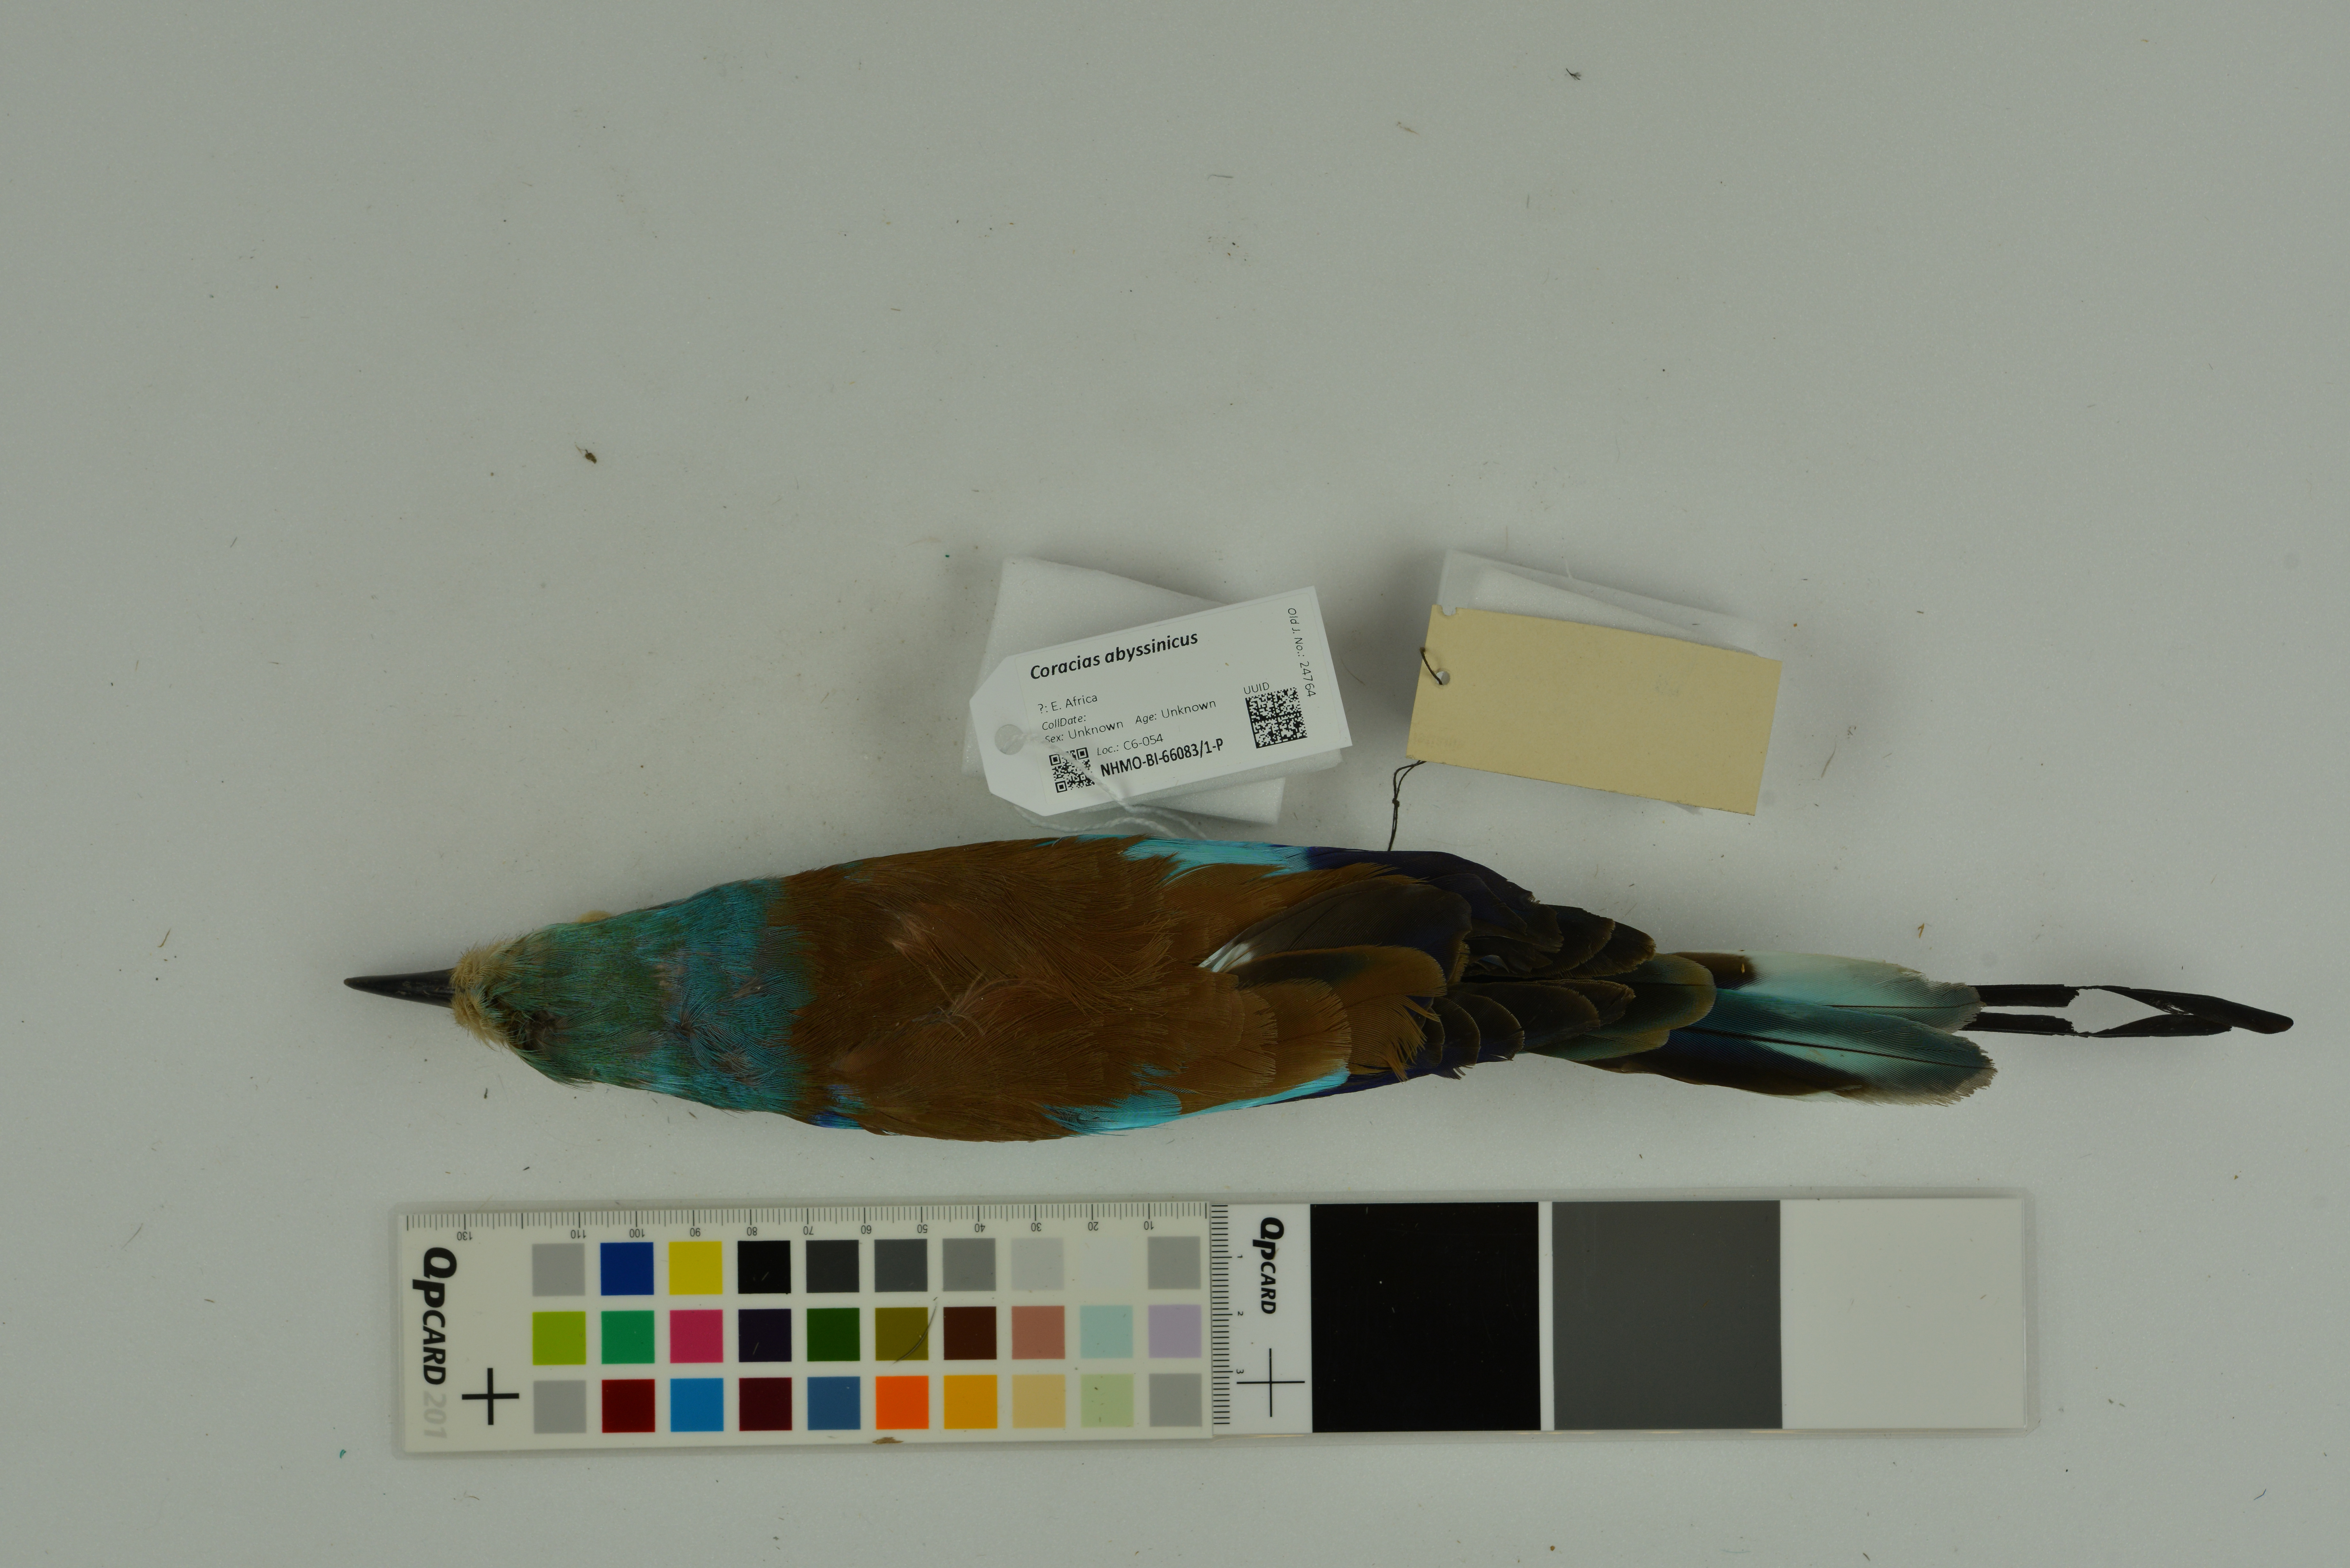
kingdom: Animalia
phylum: Chordata
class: Aves
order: Coraciiformes
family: Coraciidae
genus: Coracias
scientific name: Coracias abyssinicus
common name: Abyssinian roller
